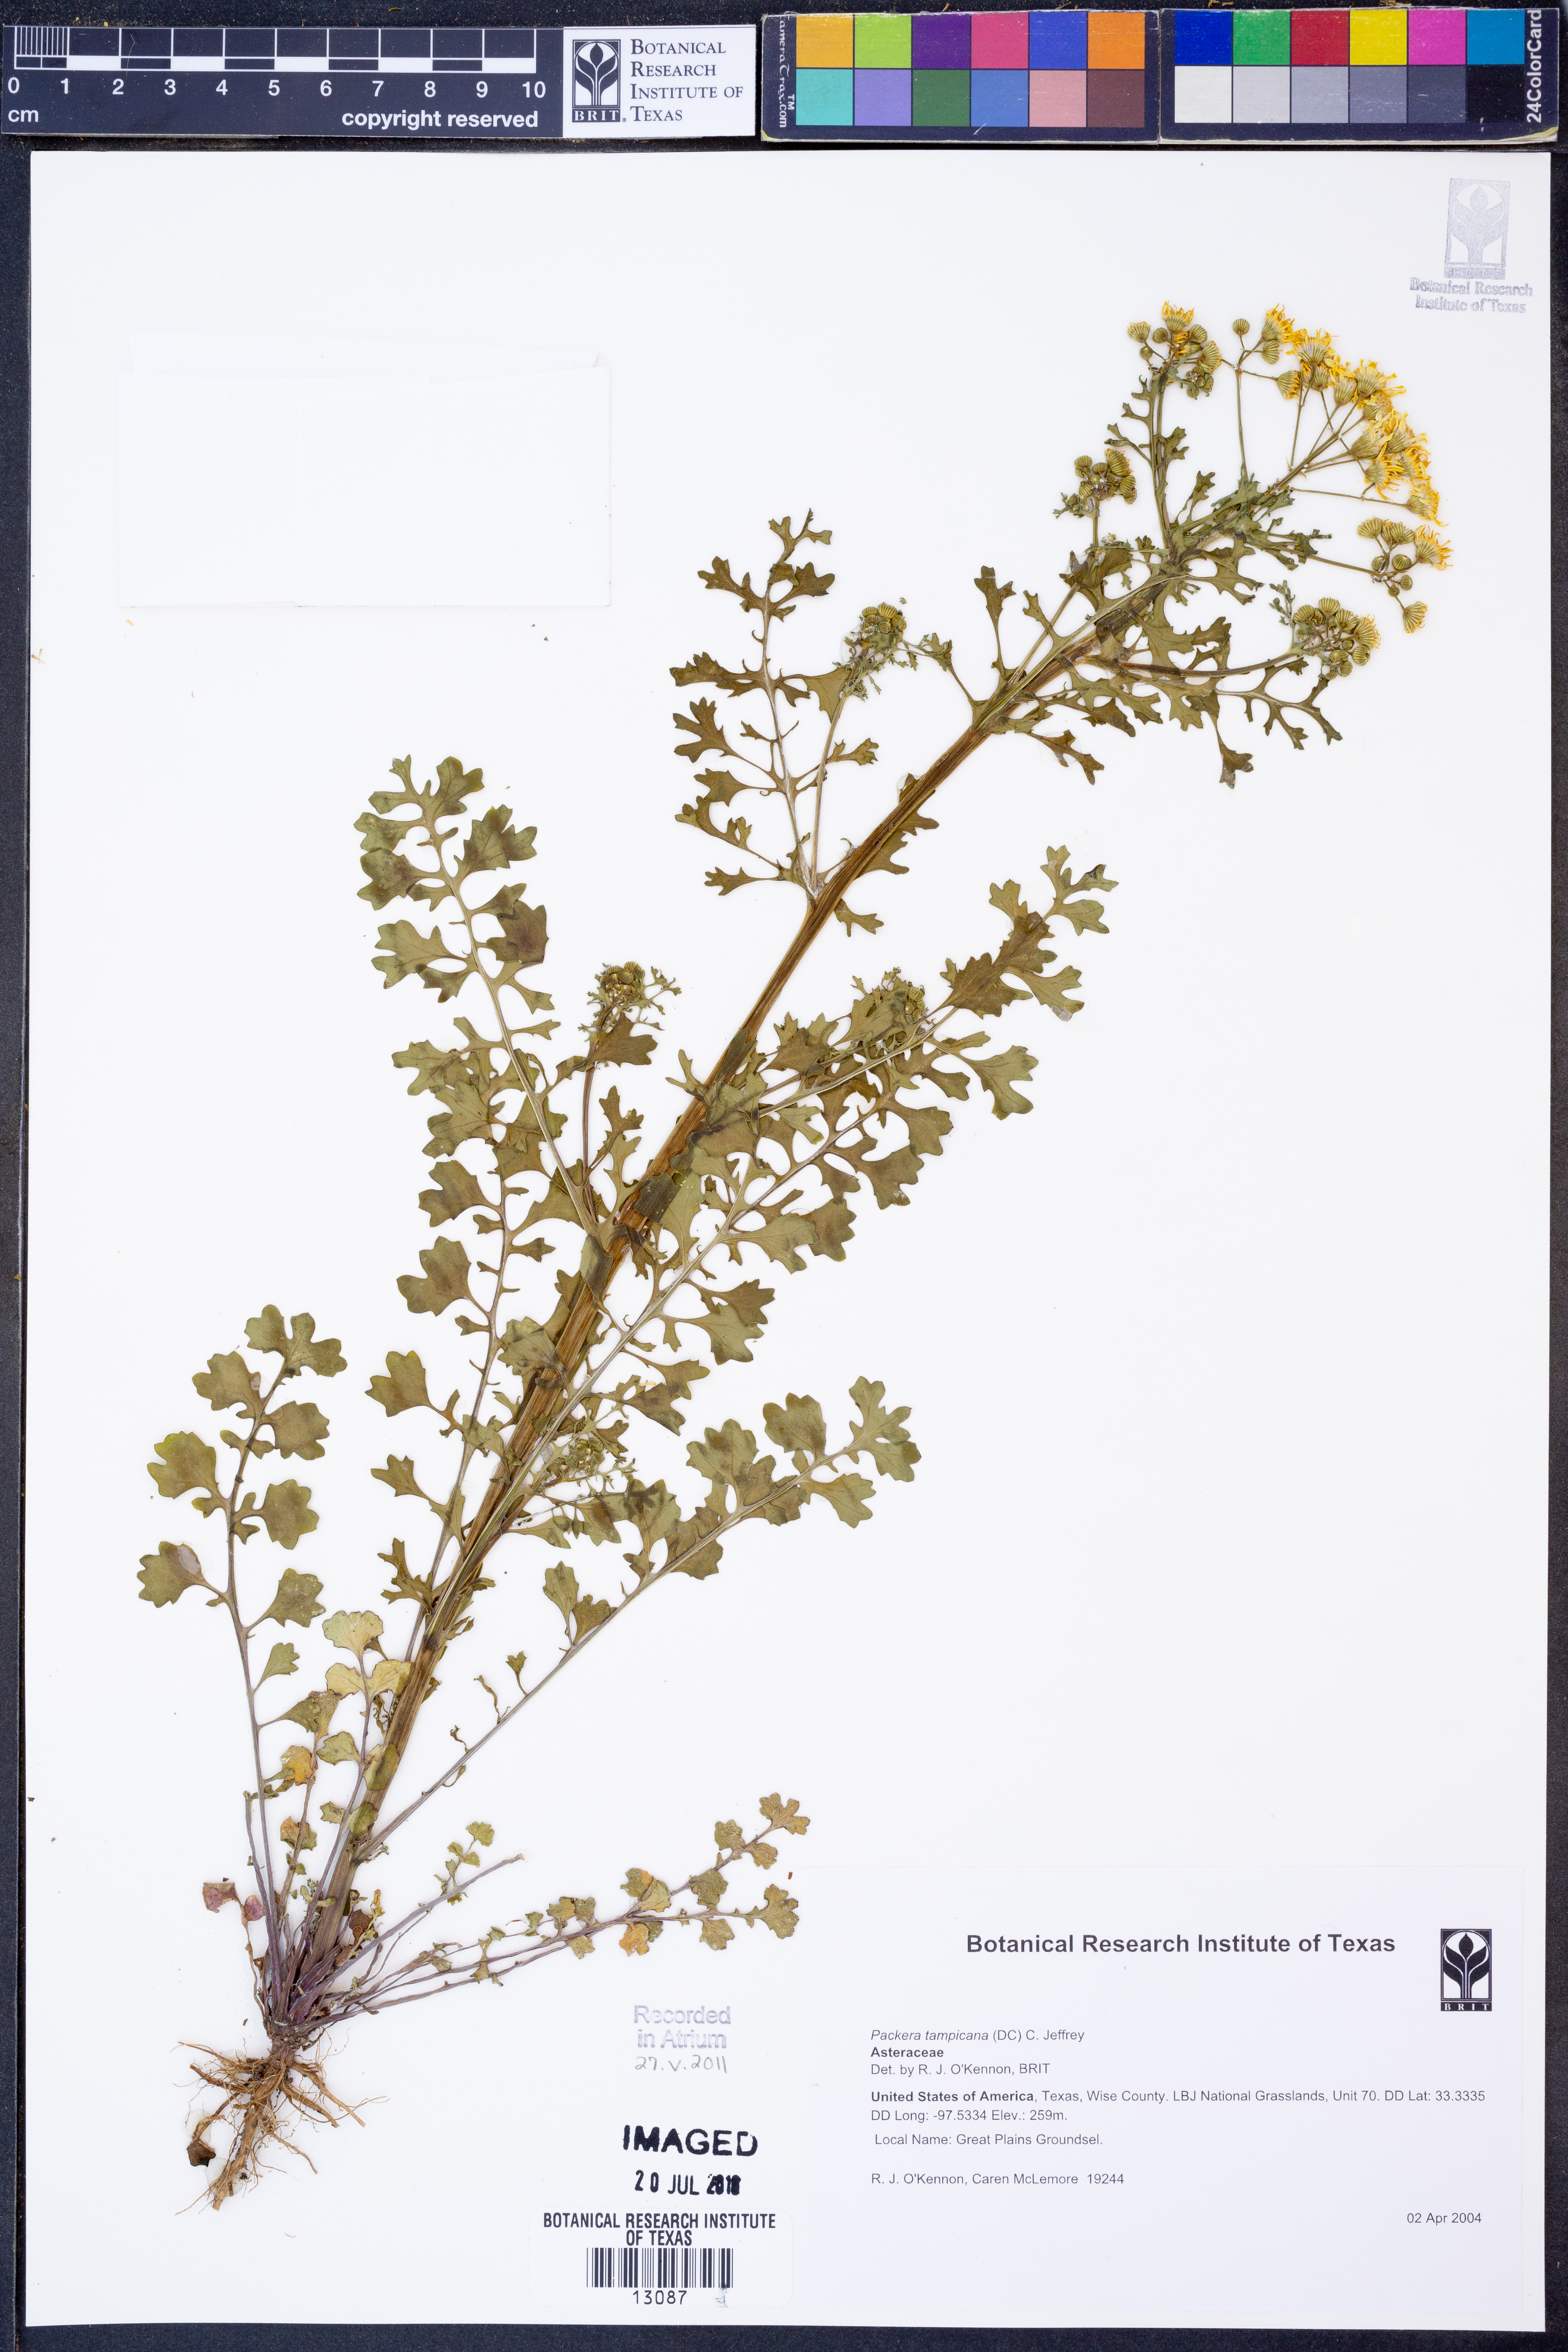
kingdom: Plantae
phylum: Tracheophyta
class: Magnoliopsida
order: Asterales
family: Asteraceae
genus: Packera
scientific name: Packera tampicana
